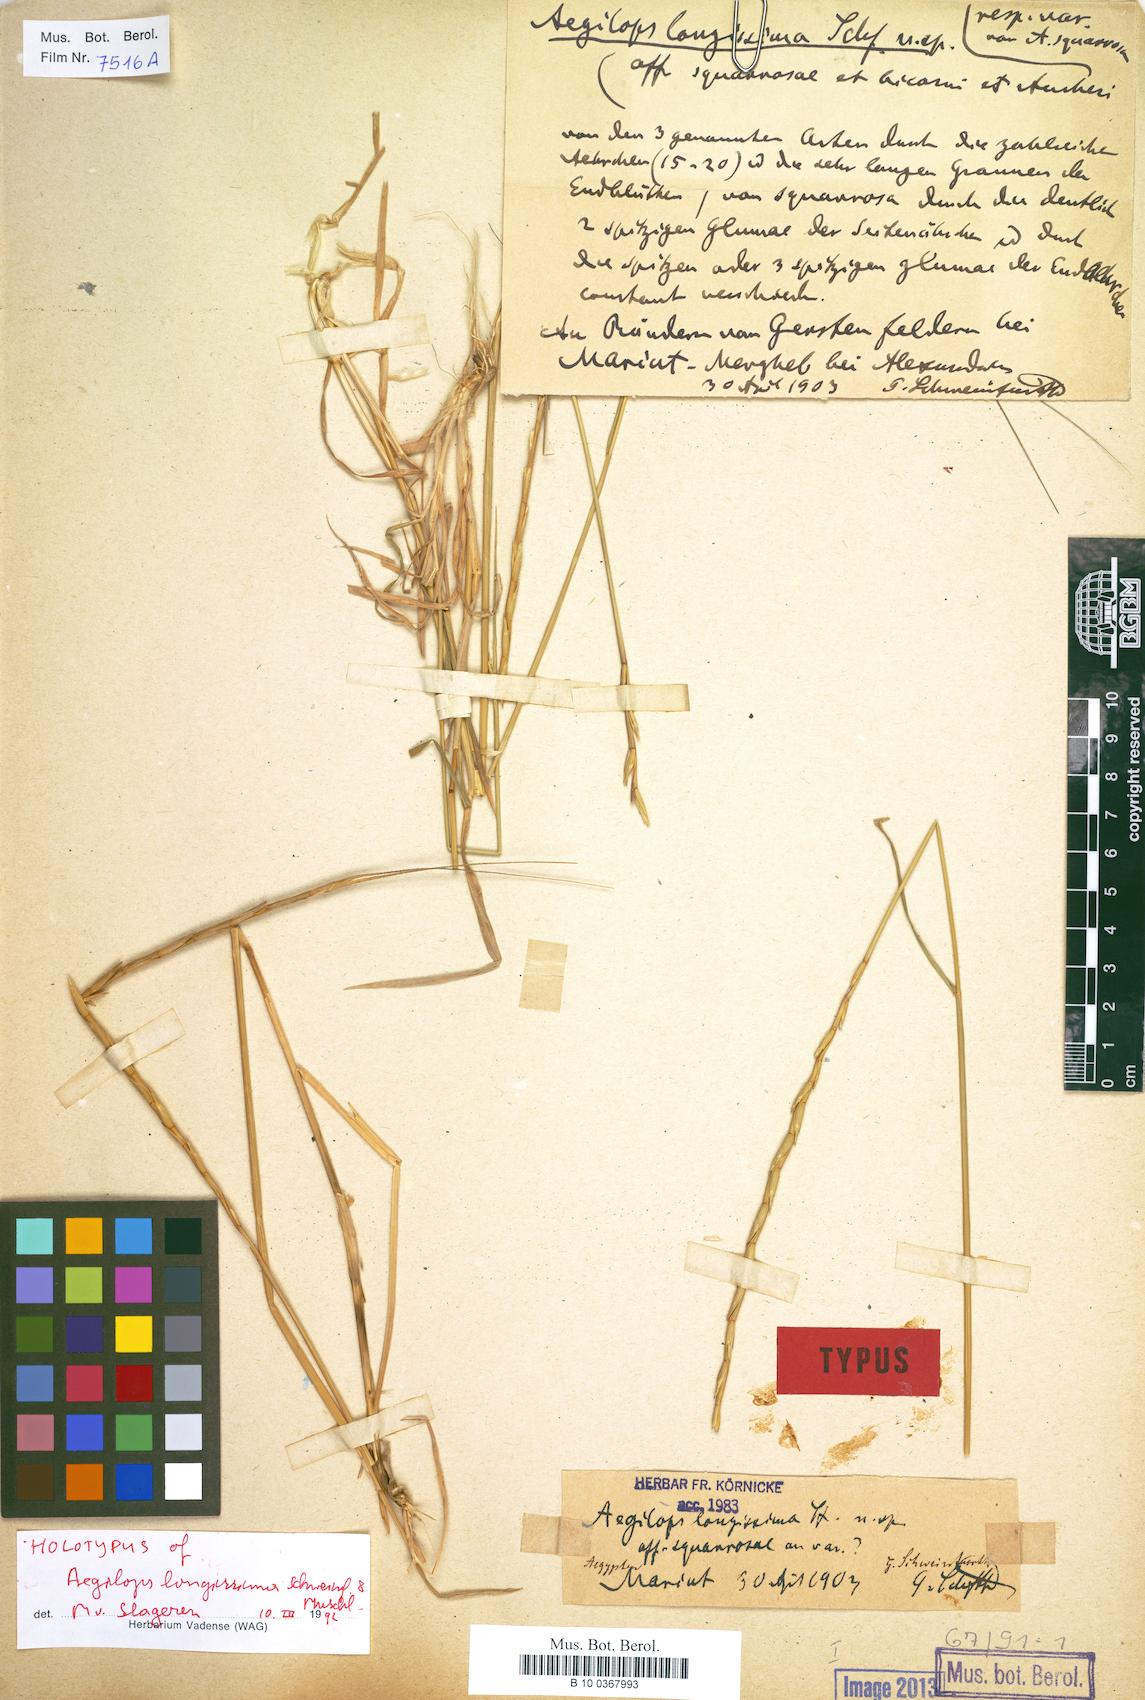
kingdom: Plantae
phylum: Tracheophyta
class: Liliopsida
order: Poales
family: Poaceae
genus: Aegilops
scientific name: Aegilops longissima
